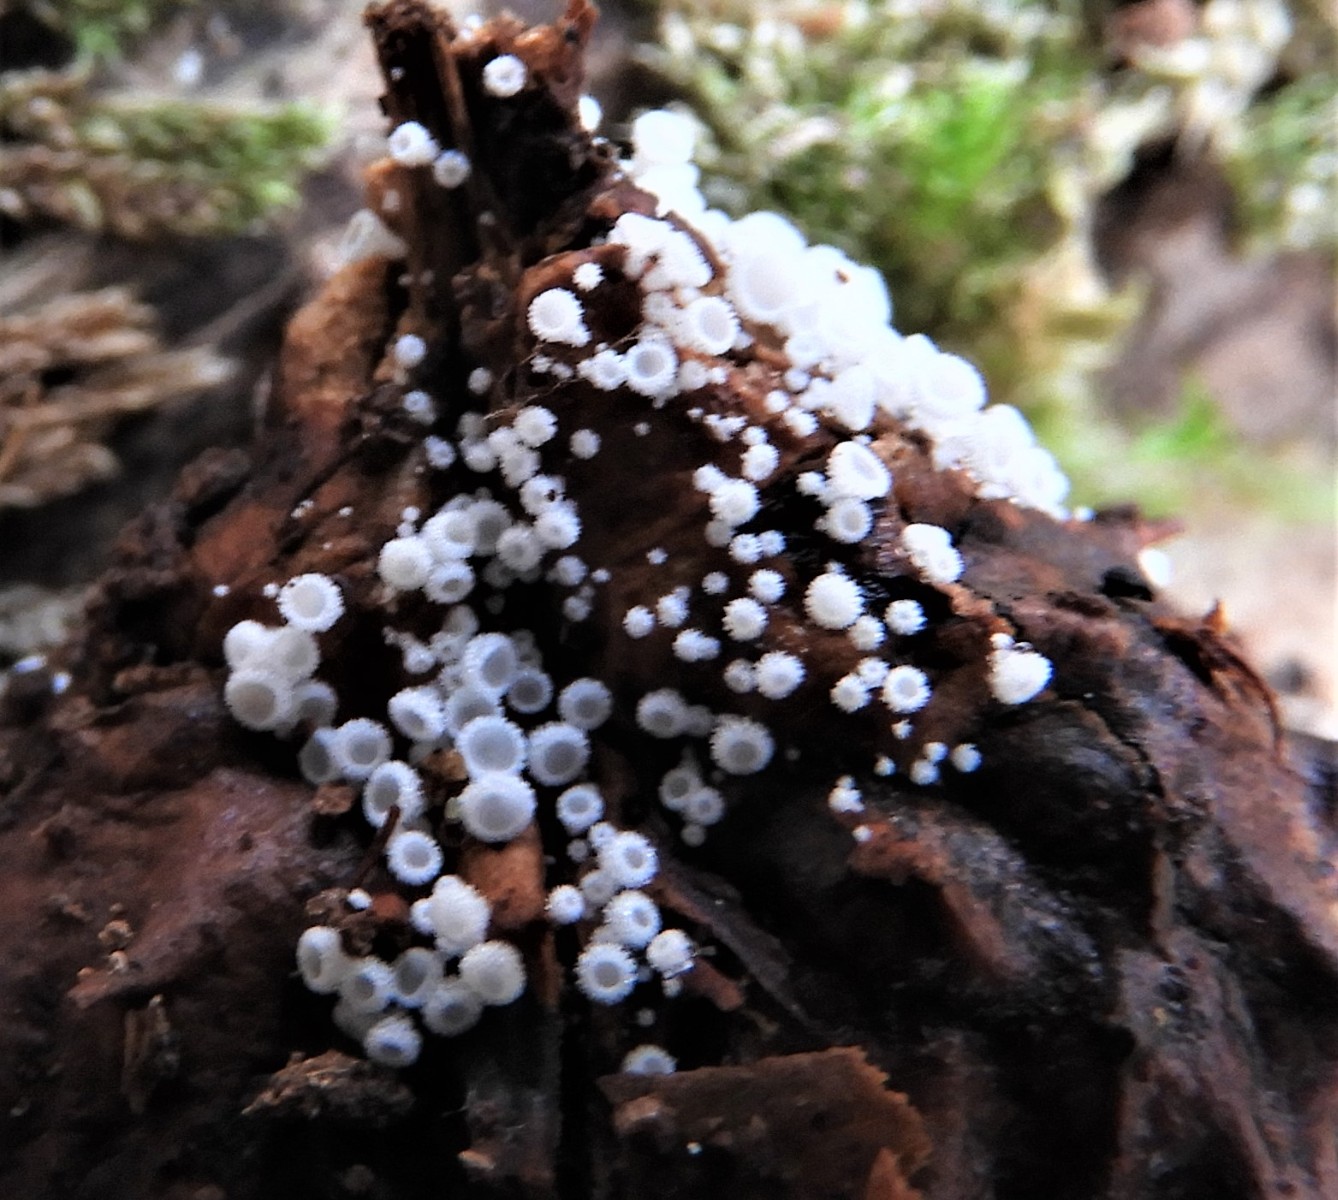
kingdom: Fungi
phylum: Ascomycota
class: Leotiomycetes
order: Helotiales
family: Lachnaceae
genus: Lachnum
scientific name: Lachnum virgineum
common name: jomfru-frynseskive
